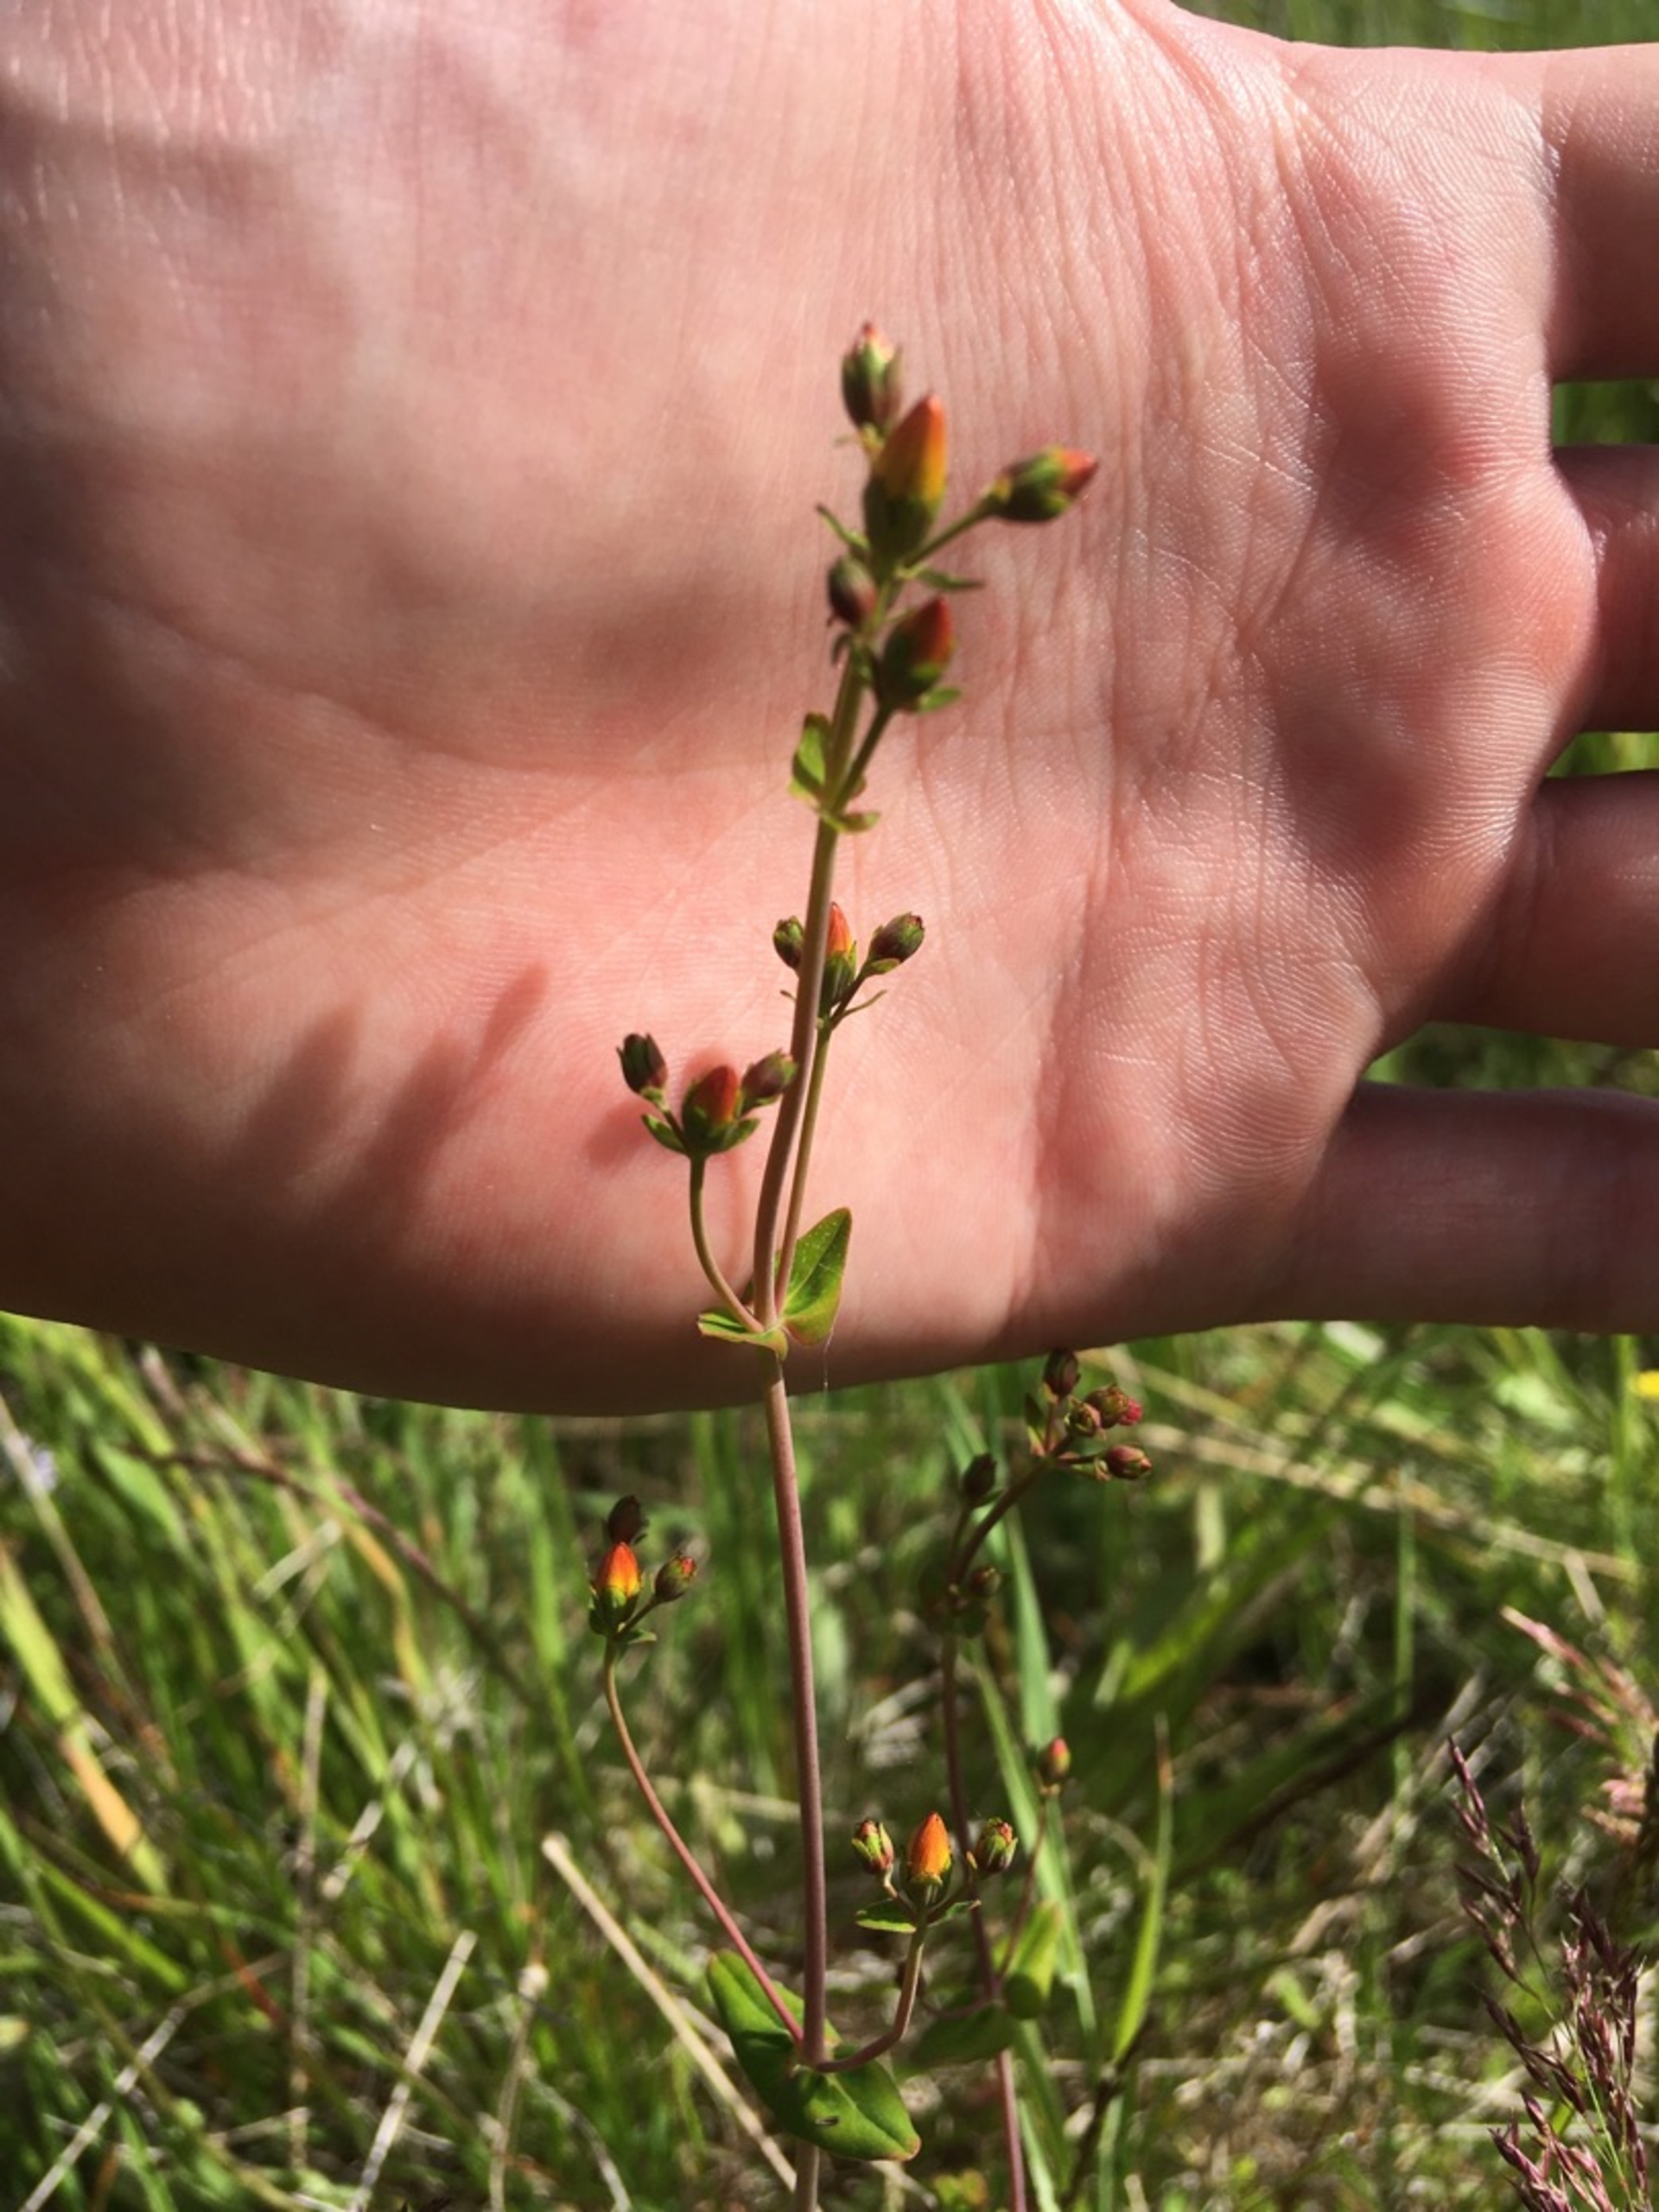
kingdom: Plantae
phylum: Tracheophyta
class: Magnoliopsida
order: Malpighiales
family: Hypericaceae
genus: Hypericum
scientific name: Hypericum pulchrum
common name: Smuk perikon
